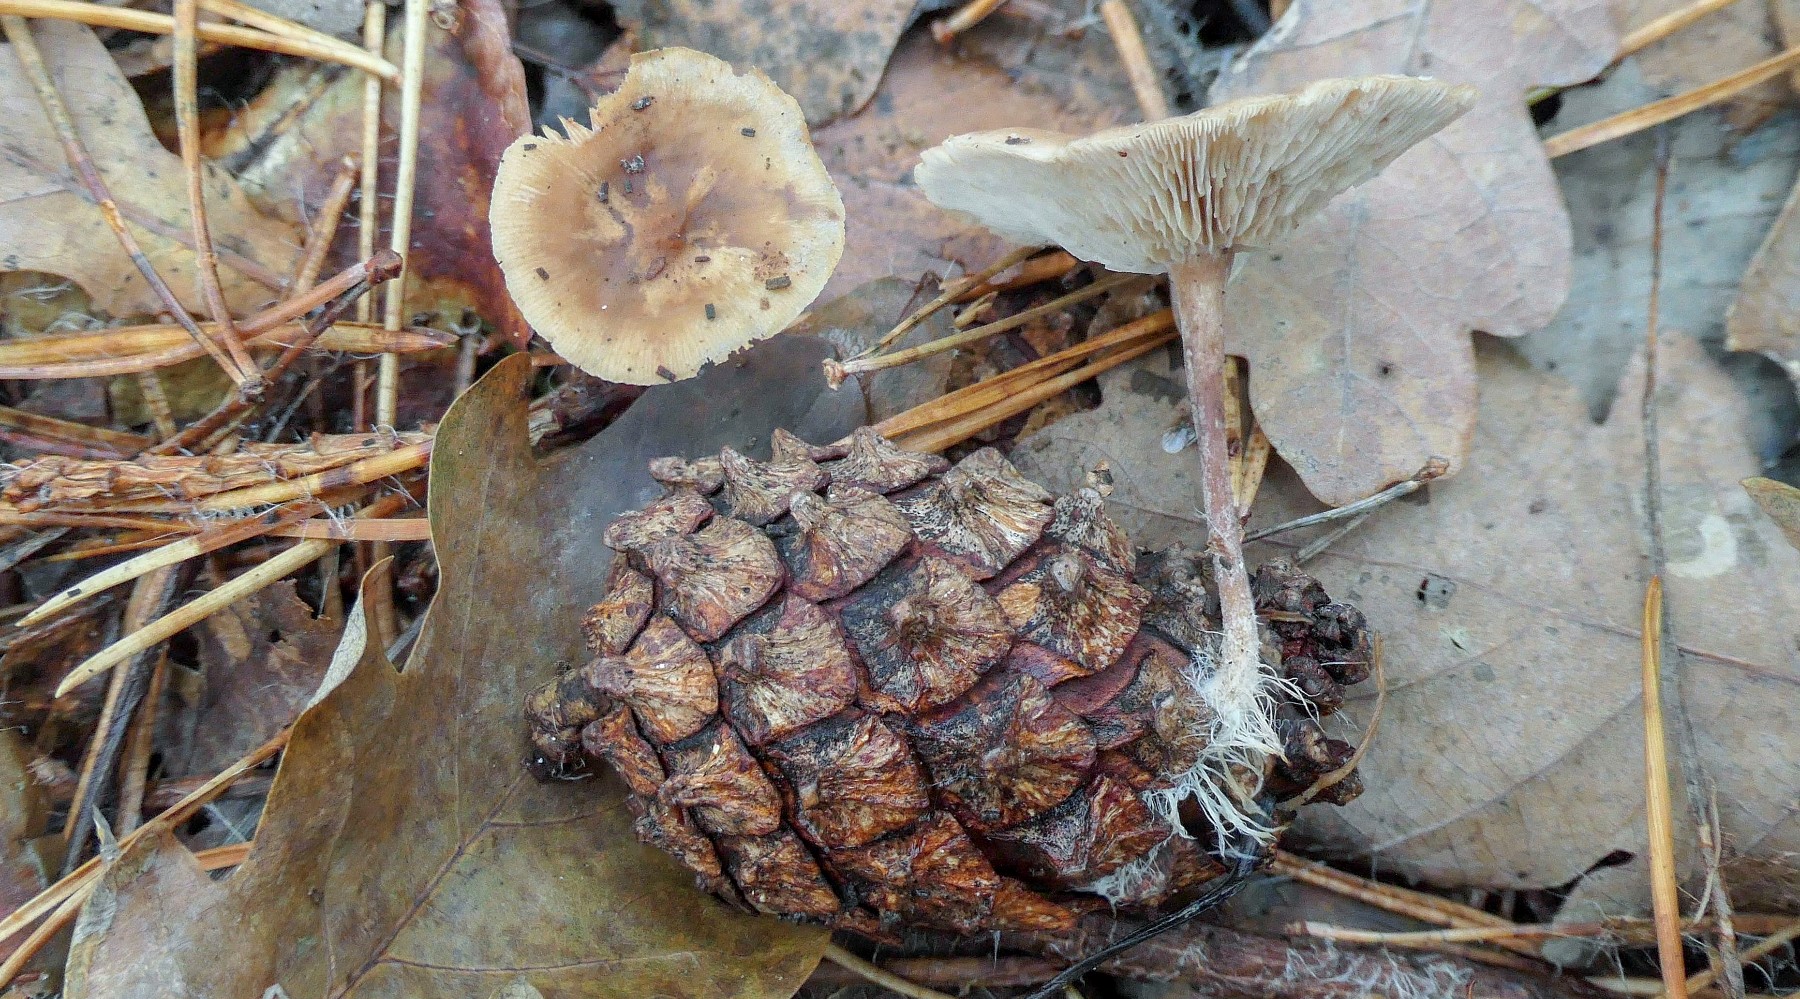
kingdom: Fungi
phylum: Basidiomycota
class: Agaricomycetes
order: Agaricales
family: Marasmiaceae
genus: Baeospora
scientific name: Baeospora myosura
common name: koglebruskhat
